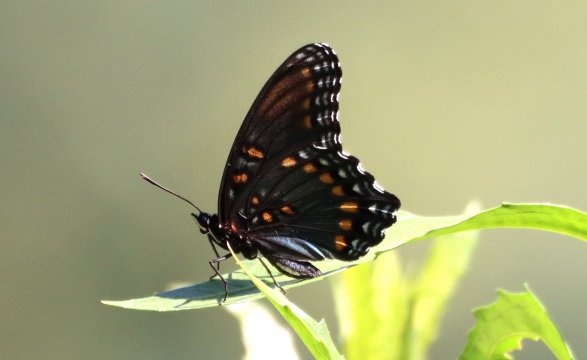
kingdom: Animalia
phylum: Arthropoda
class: Insecta
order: Lepidoptera
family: Nymphalidae
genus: Limenitis
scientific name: Limenitis arthemis
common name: Red-spotted Admiral
